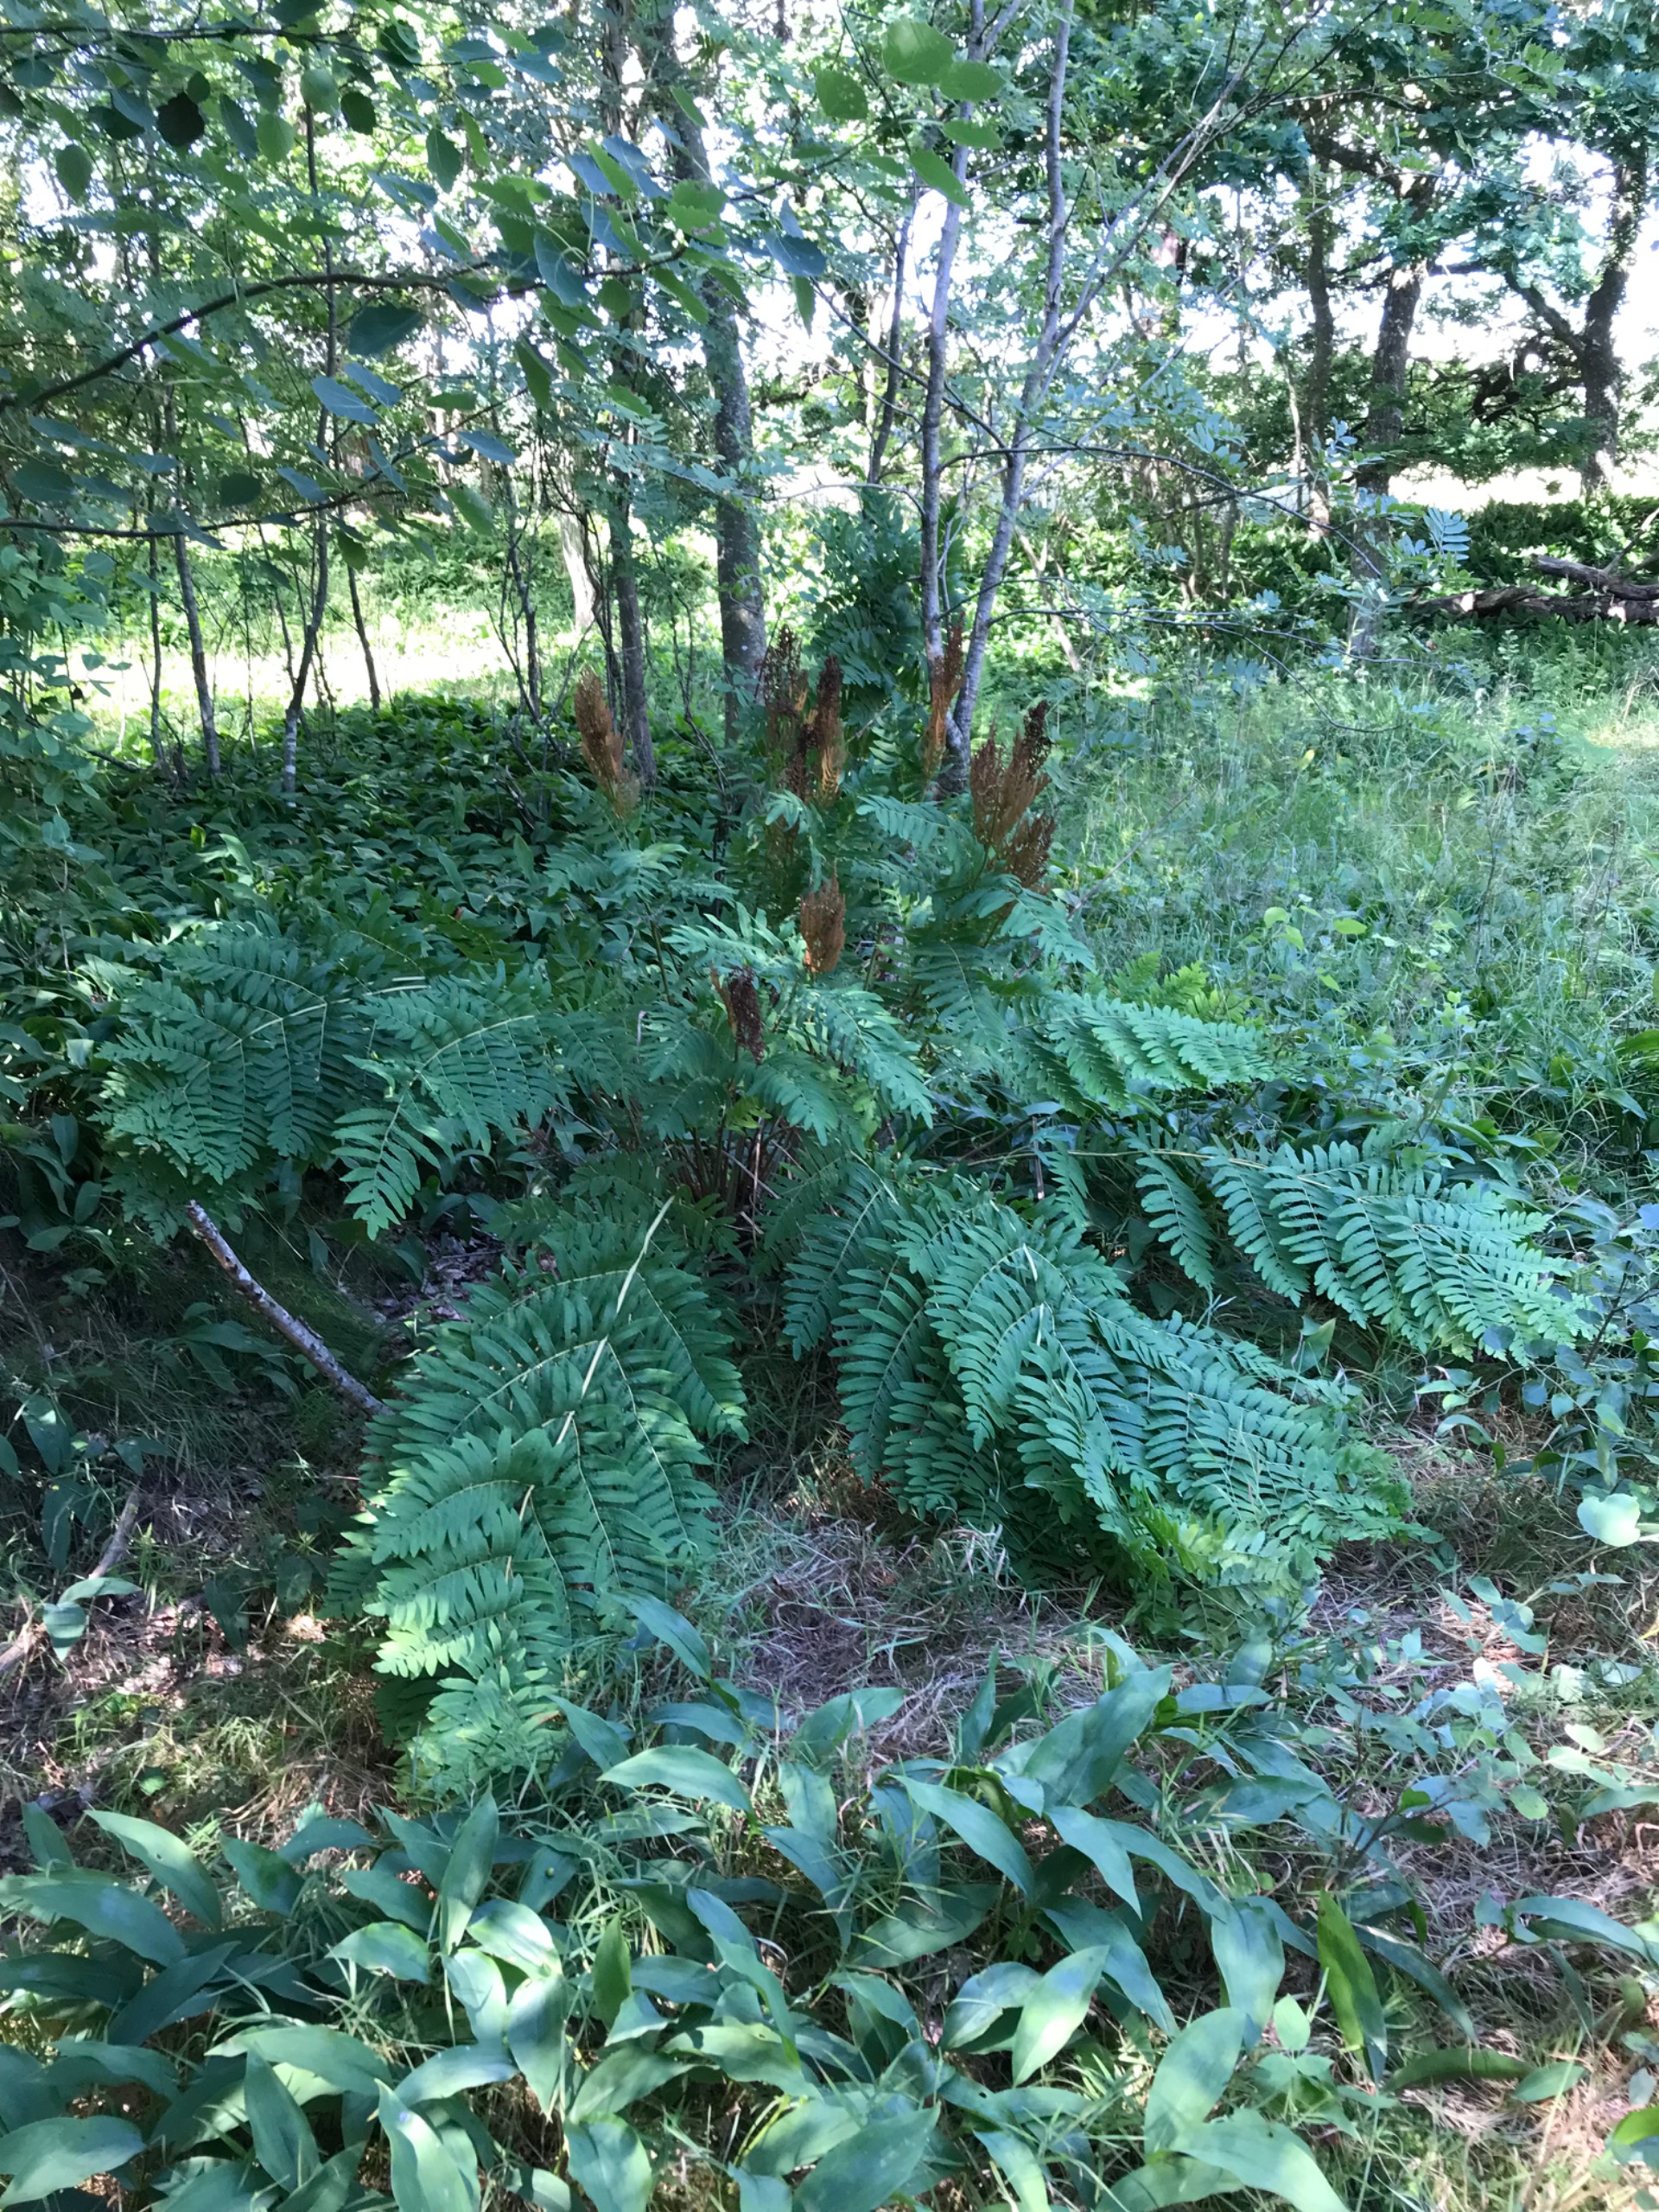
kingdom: Plantae
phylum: Tracheophyta
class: Polypodiopsida
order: Osmundales
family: Osmundaceae
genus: Osmunda
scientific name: Osmunda regalis
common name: Kongebregne
